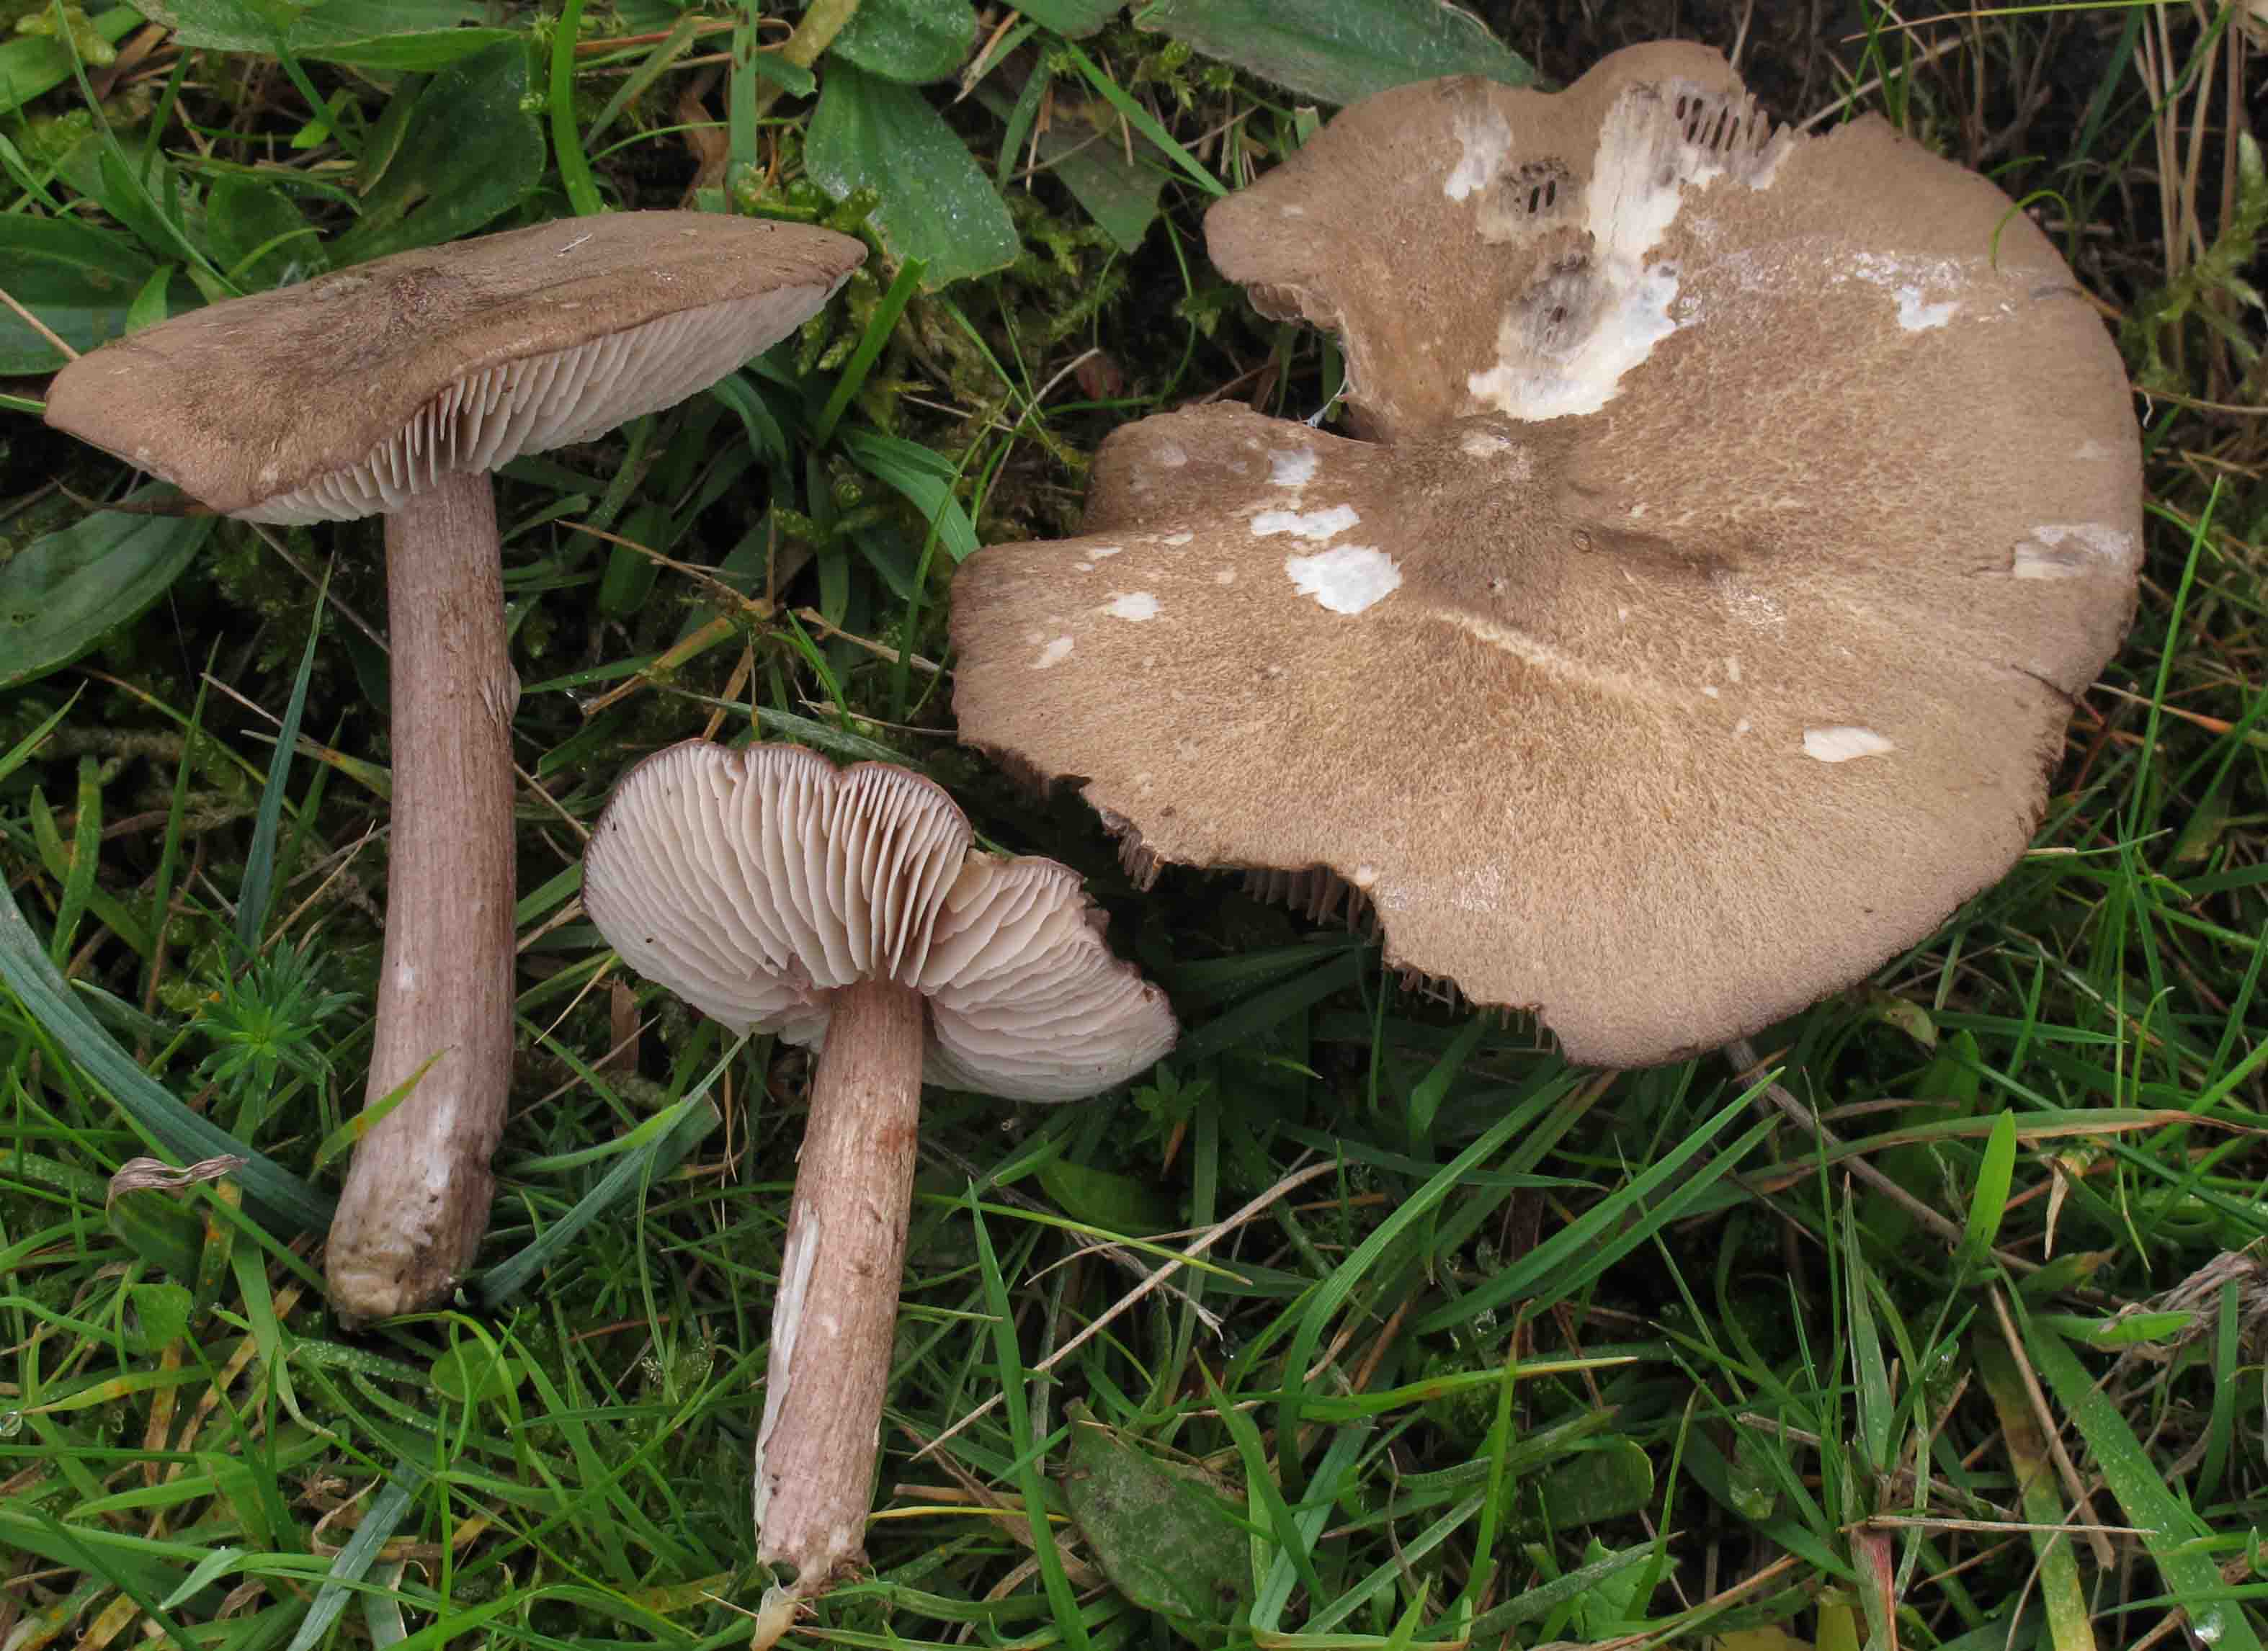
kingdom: Fungi
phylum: Basidiomycota
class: Agaricomycetes
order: Agaricales
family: Entolomataceae
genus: Entoloma
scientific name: Entoloma porphyrophaeum
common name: porfyrbrun rødblad
